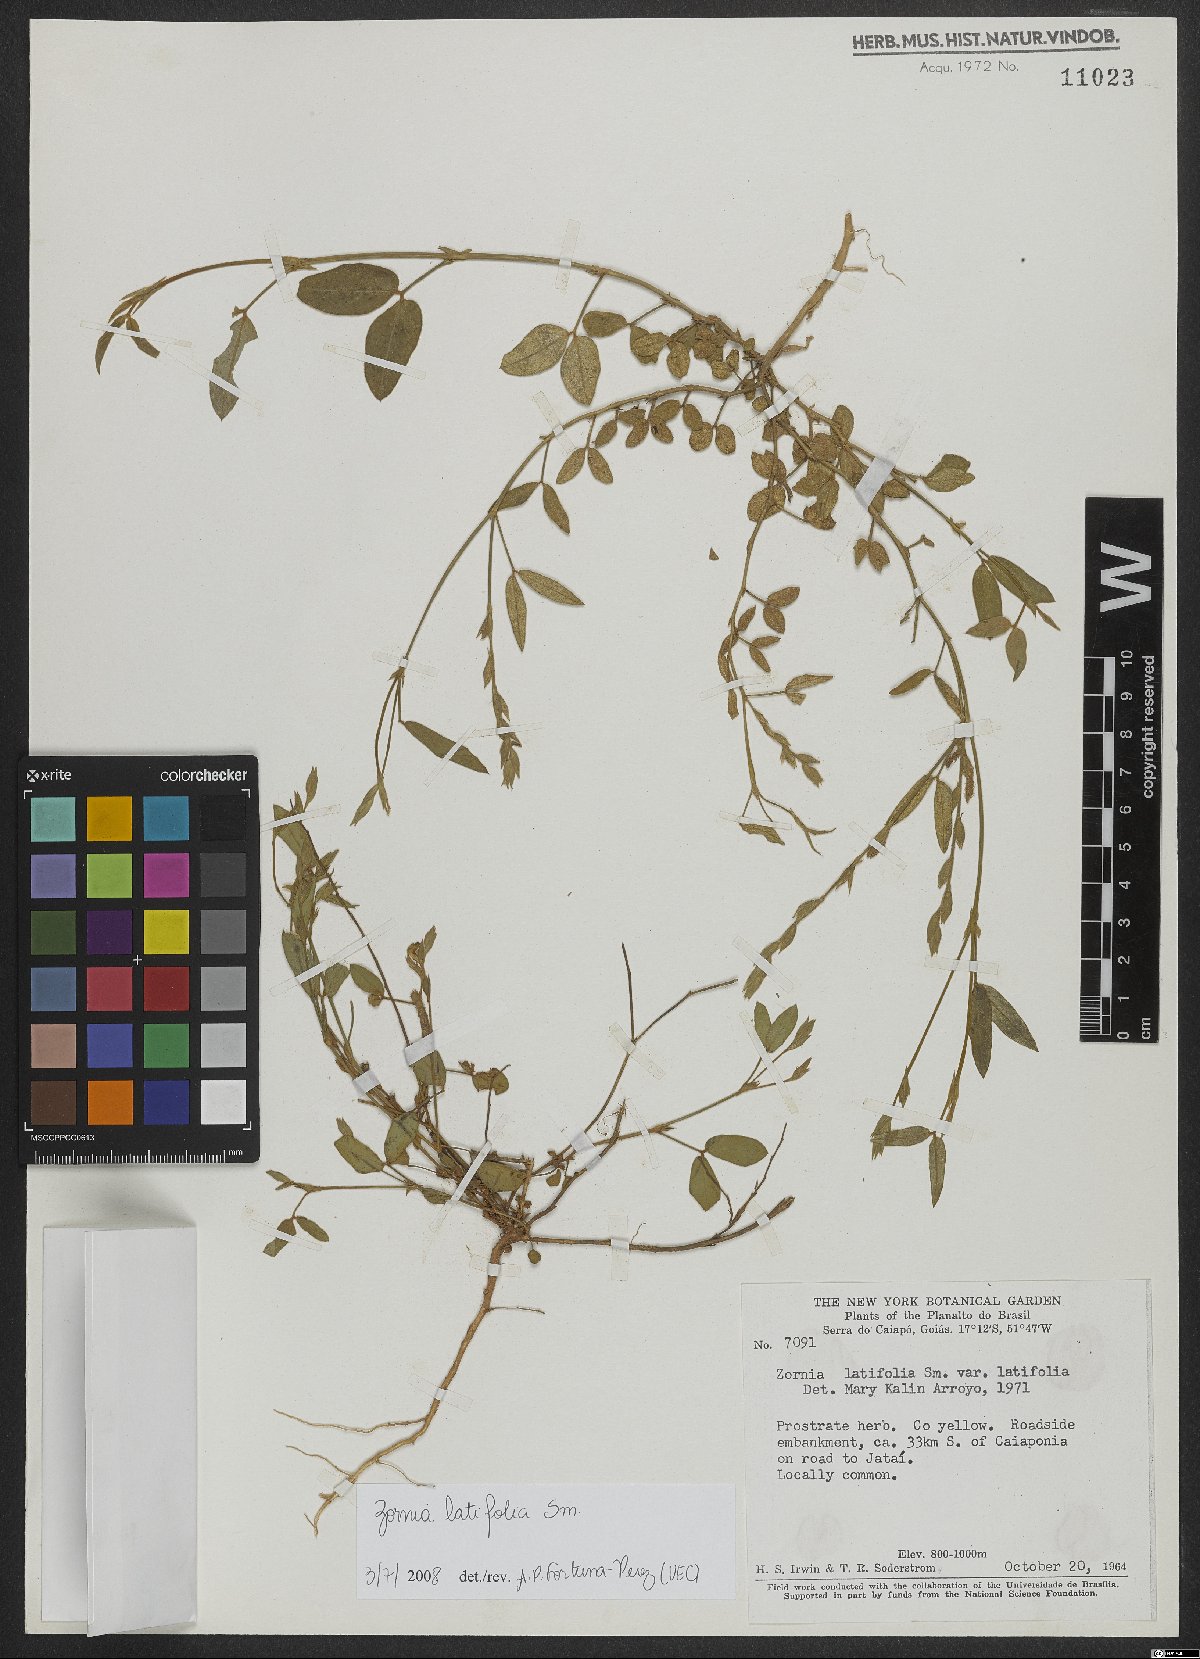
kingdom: Plantae
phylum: Tracheophyta
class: Magnoliopsida
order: Fabales
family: Fabaceae
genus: Zornia
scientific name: Zornia sericea
